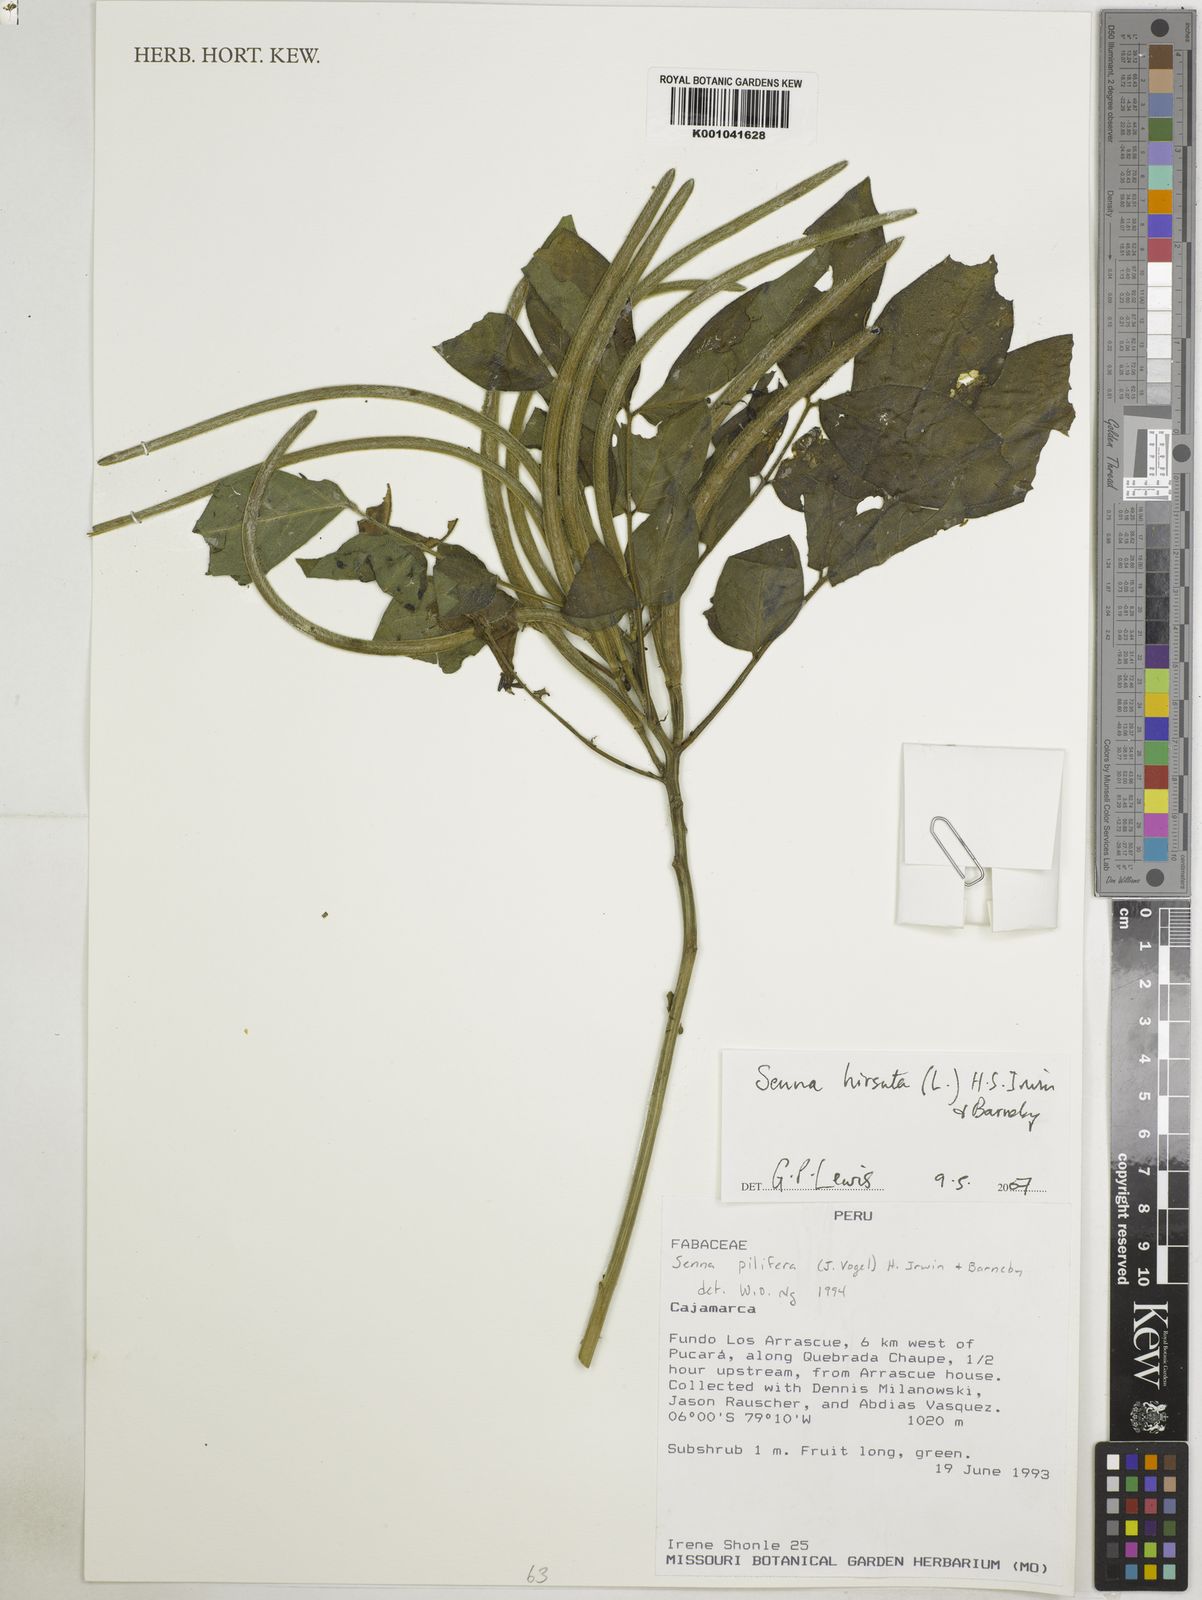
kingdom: Plantae
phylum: Tracheophyta
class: Magnoliopsida
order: Fabales
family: Fabaceae
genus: Senna
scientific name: Senna hirsuta
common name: Woolly senna
